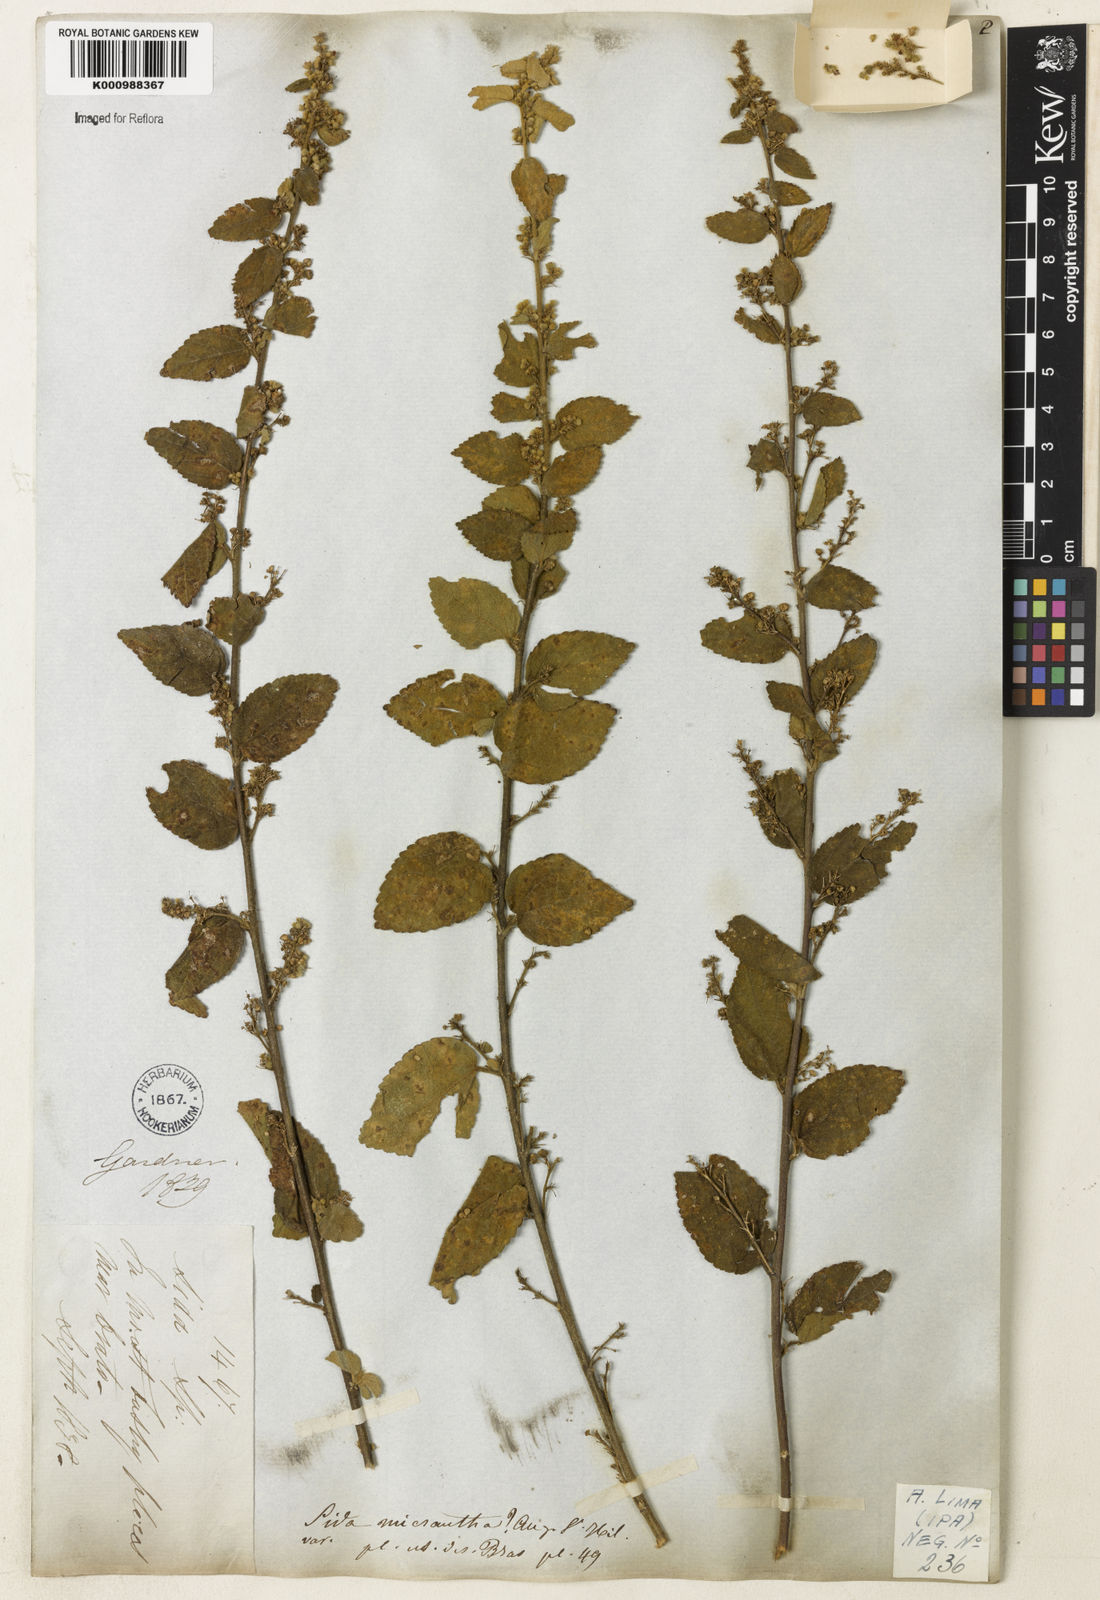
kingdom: Plantae
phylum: Tracheophyta
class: Magnoliopsida
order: Malvales
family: Malvaceae
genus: Sidastrum
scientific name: Sidastrum micranthum
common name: Dainty sandmallow
